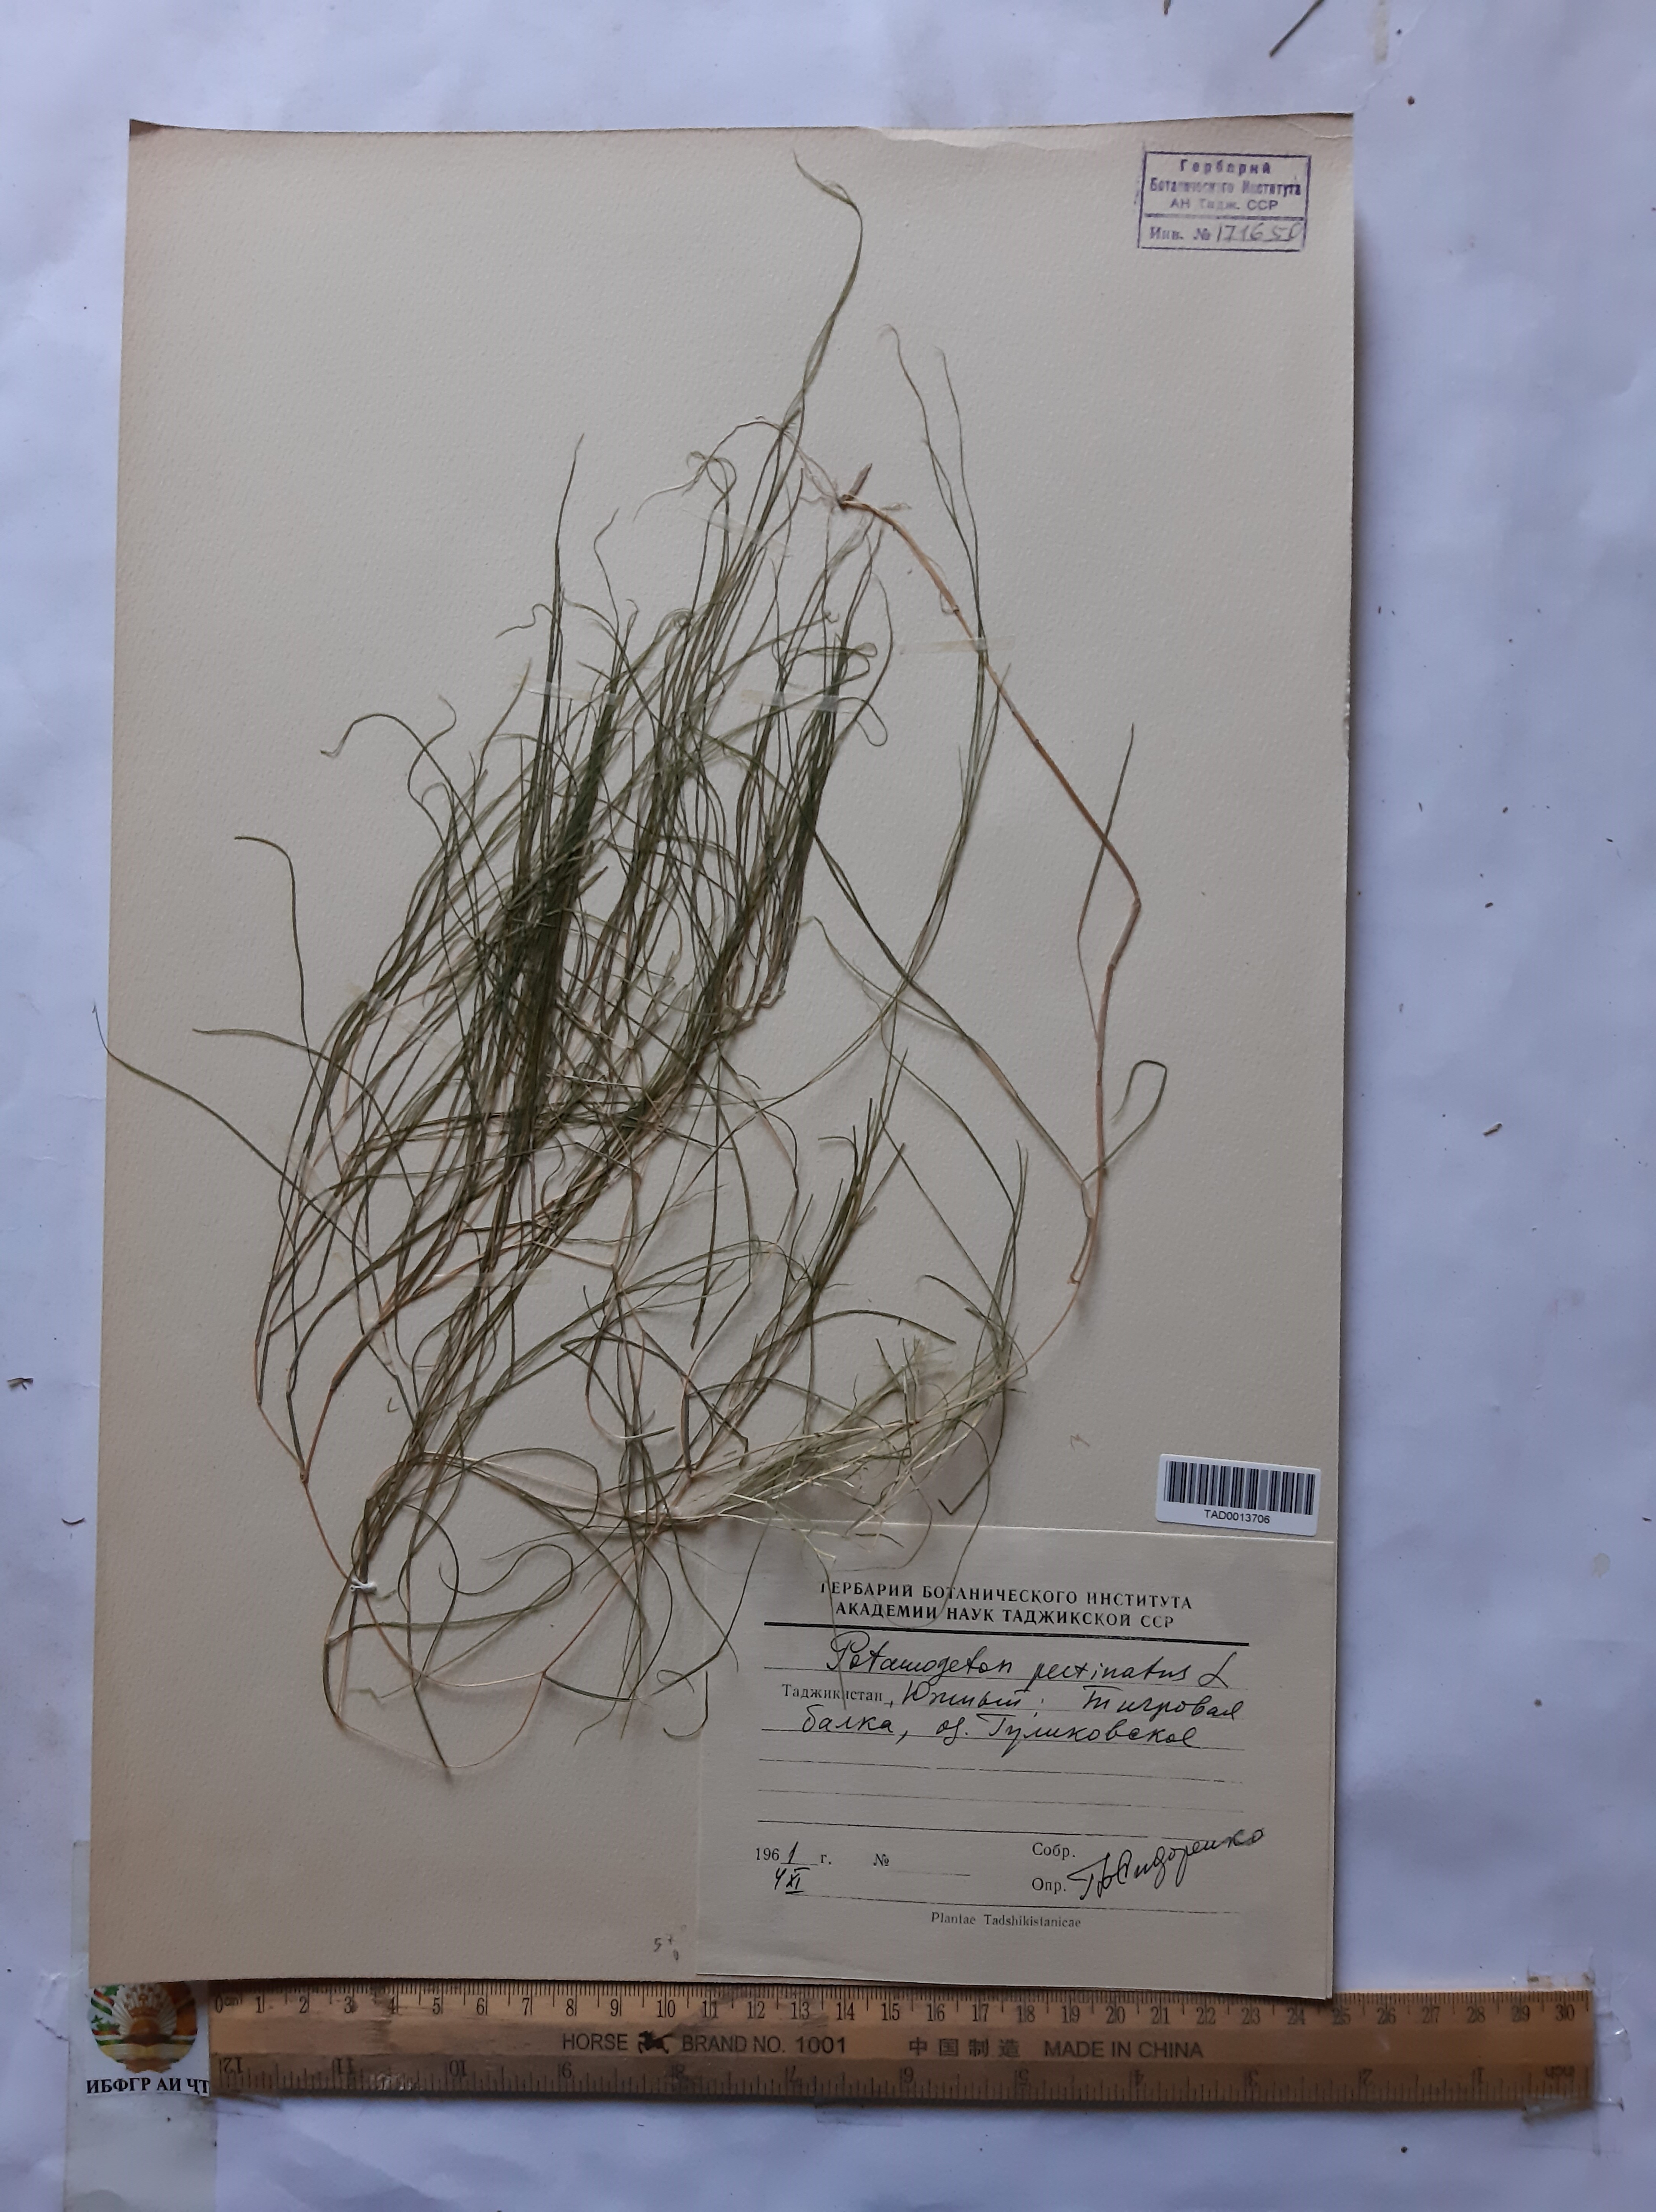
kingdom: Plantae
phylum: Tracheophyta
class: Liliopsida
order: Alismatales
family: Potamogetonaceae
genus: Stuckenia
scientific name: Stuckenia pectinata
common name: Sago pondweed
